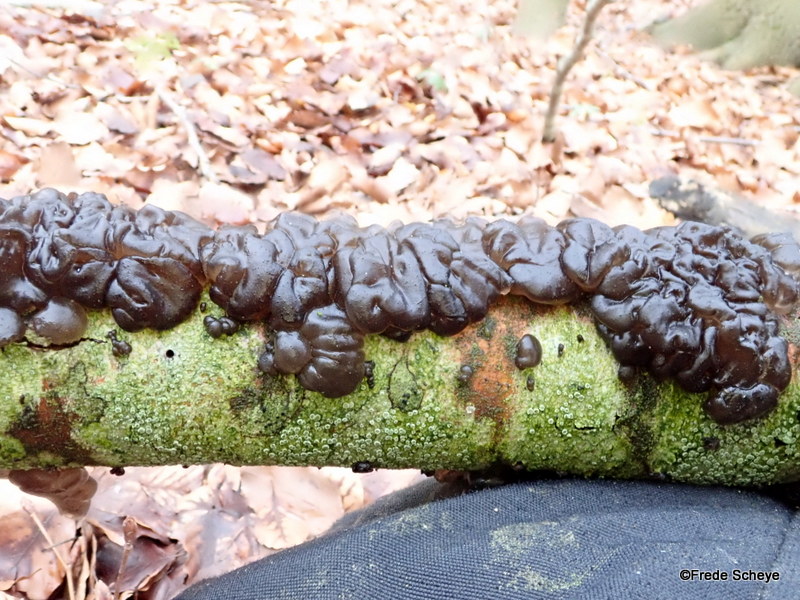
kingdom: Fungi
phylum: Basidiomycota
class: Agaricomycetes
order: Auriculariales
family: Auriculariaceae
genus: Exidia
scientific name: Exidia nigricans
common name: almindelig bævretop
